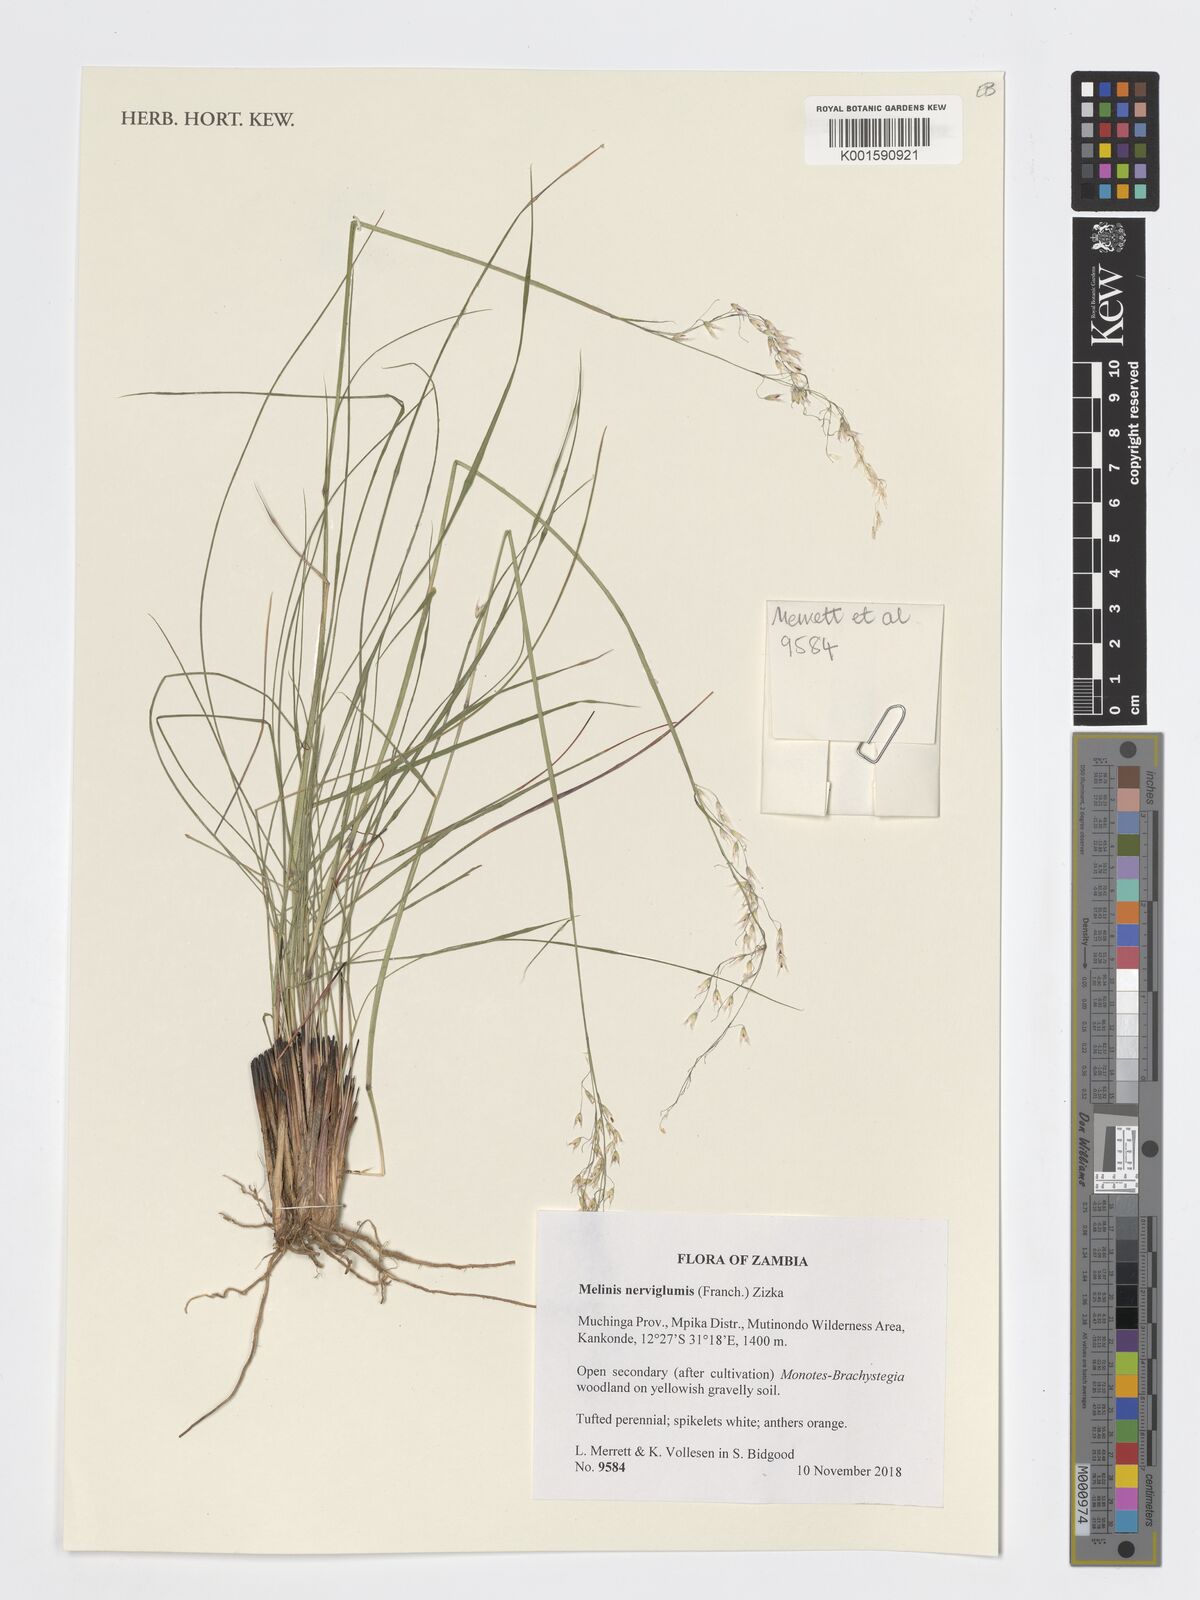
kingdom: Plantae
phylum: Tracheophyta
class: Liliopsida
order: Poales
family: Poaceae
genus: Melinis
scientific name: Melinis nerviglumis
